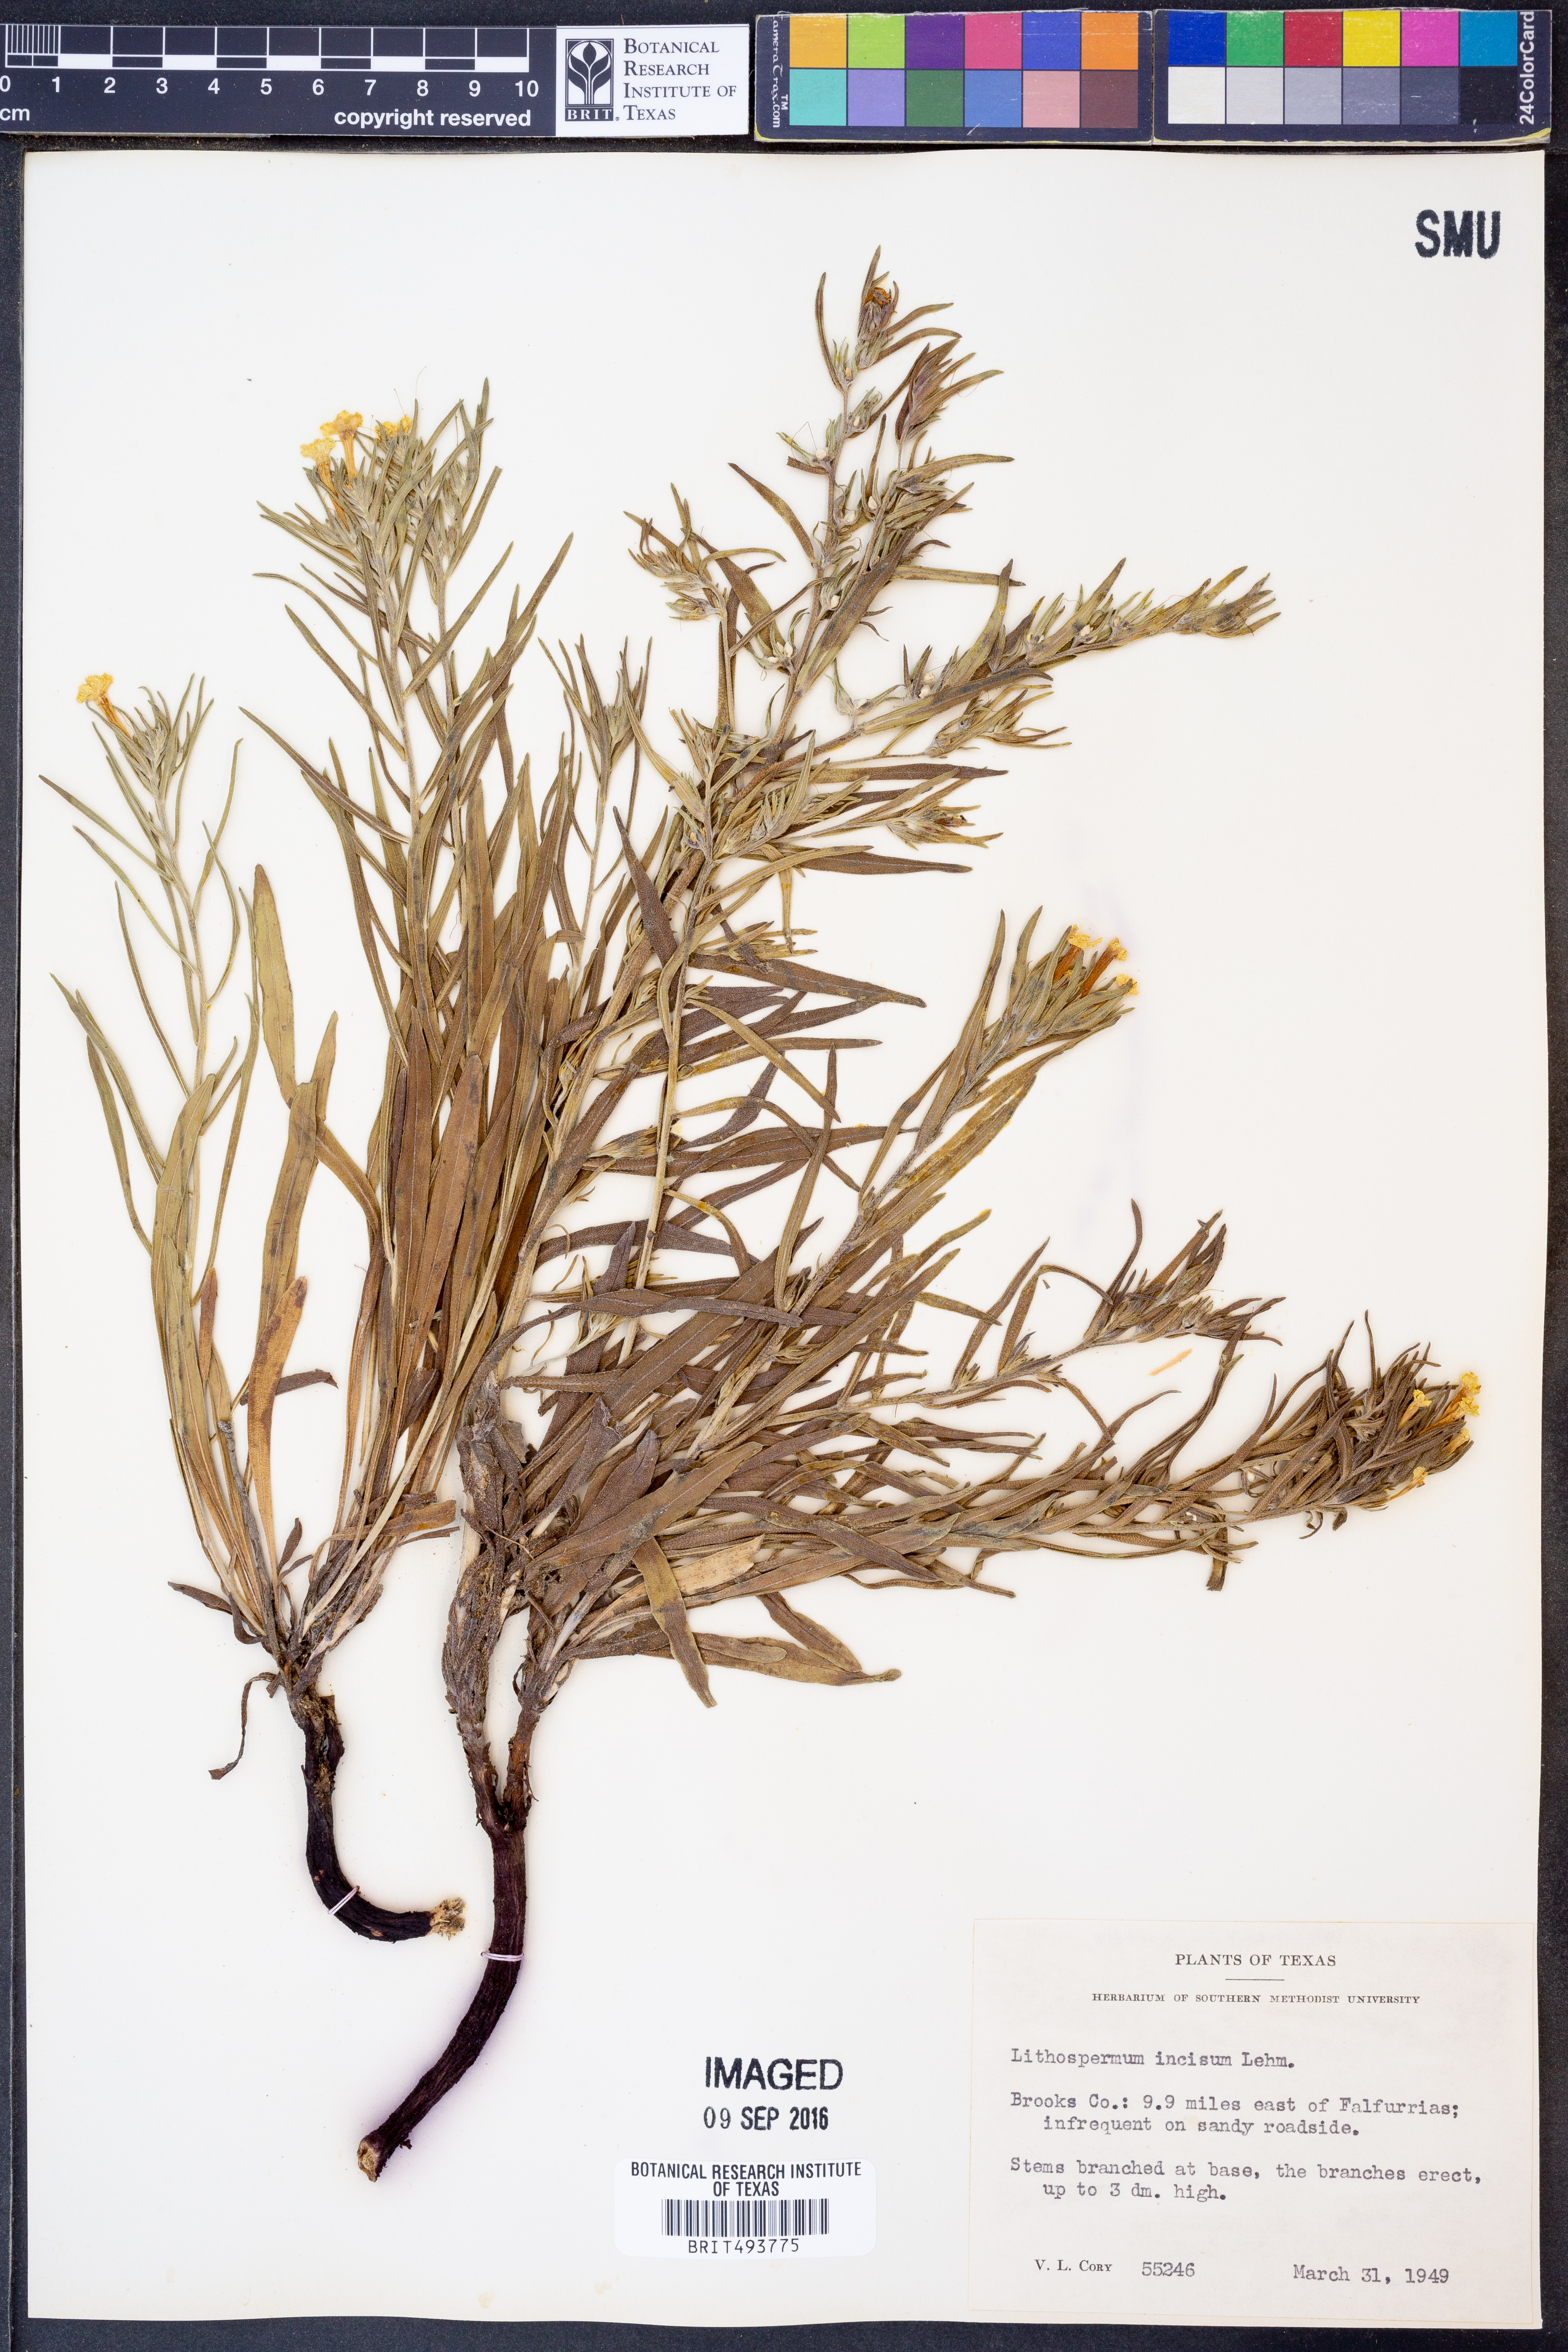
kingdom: Plantae
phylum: Tracheophyta
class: Magnoliopsida
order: Boraginales
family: Boraginaceae
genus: Lithospermum
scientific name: Lithospermum incisum
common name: Fringed gromwell
